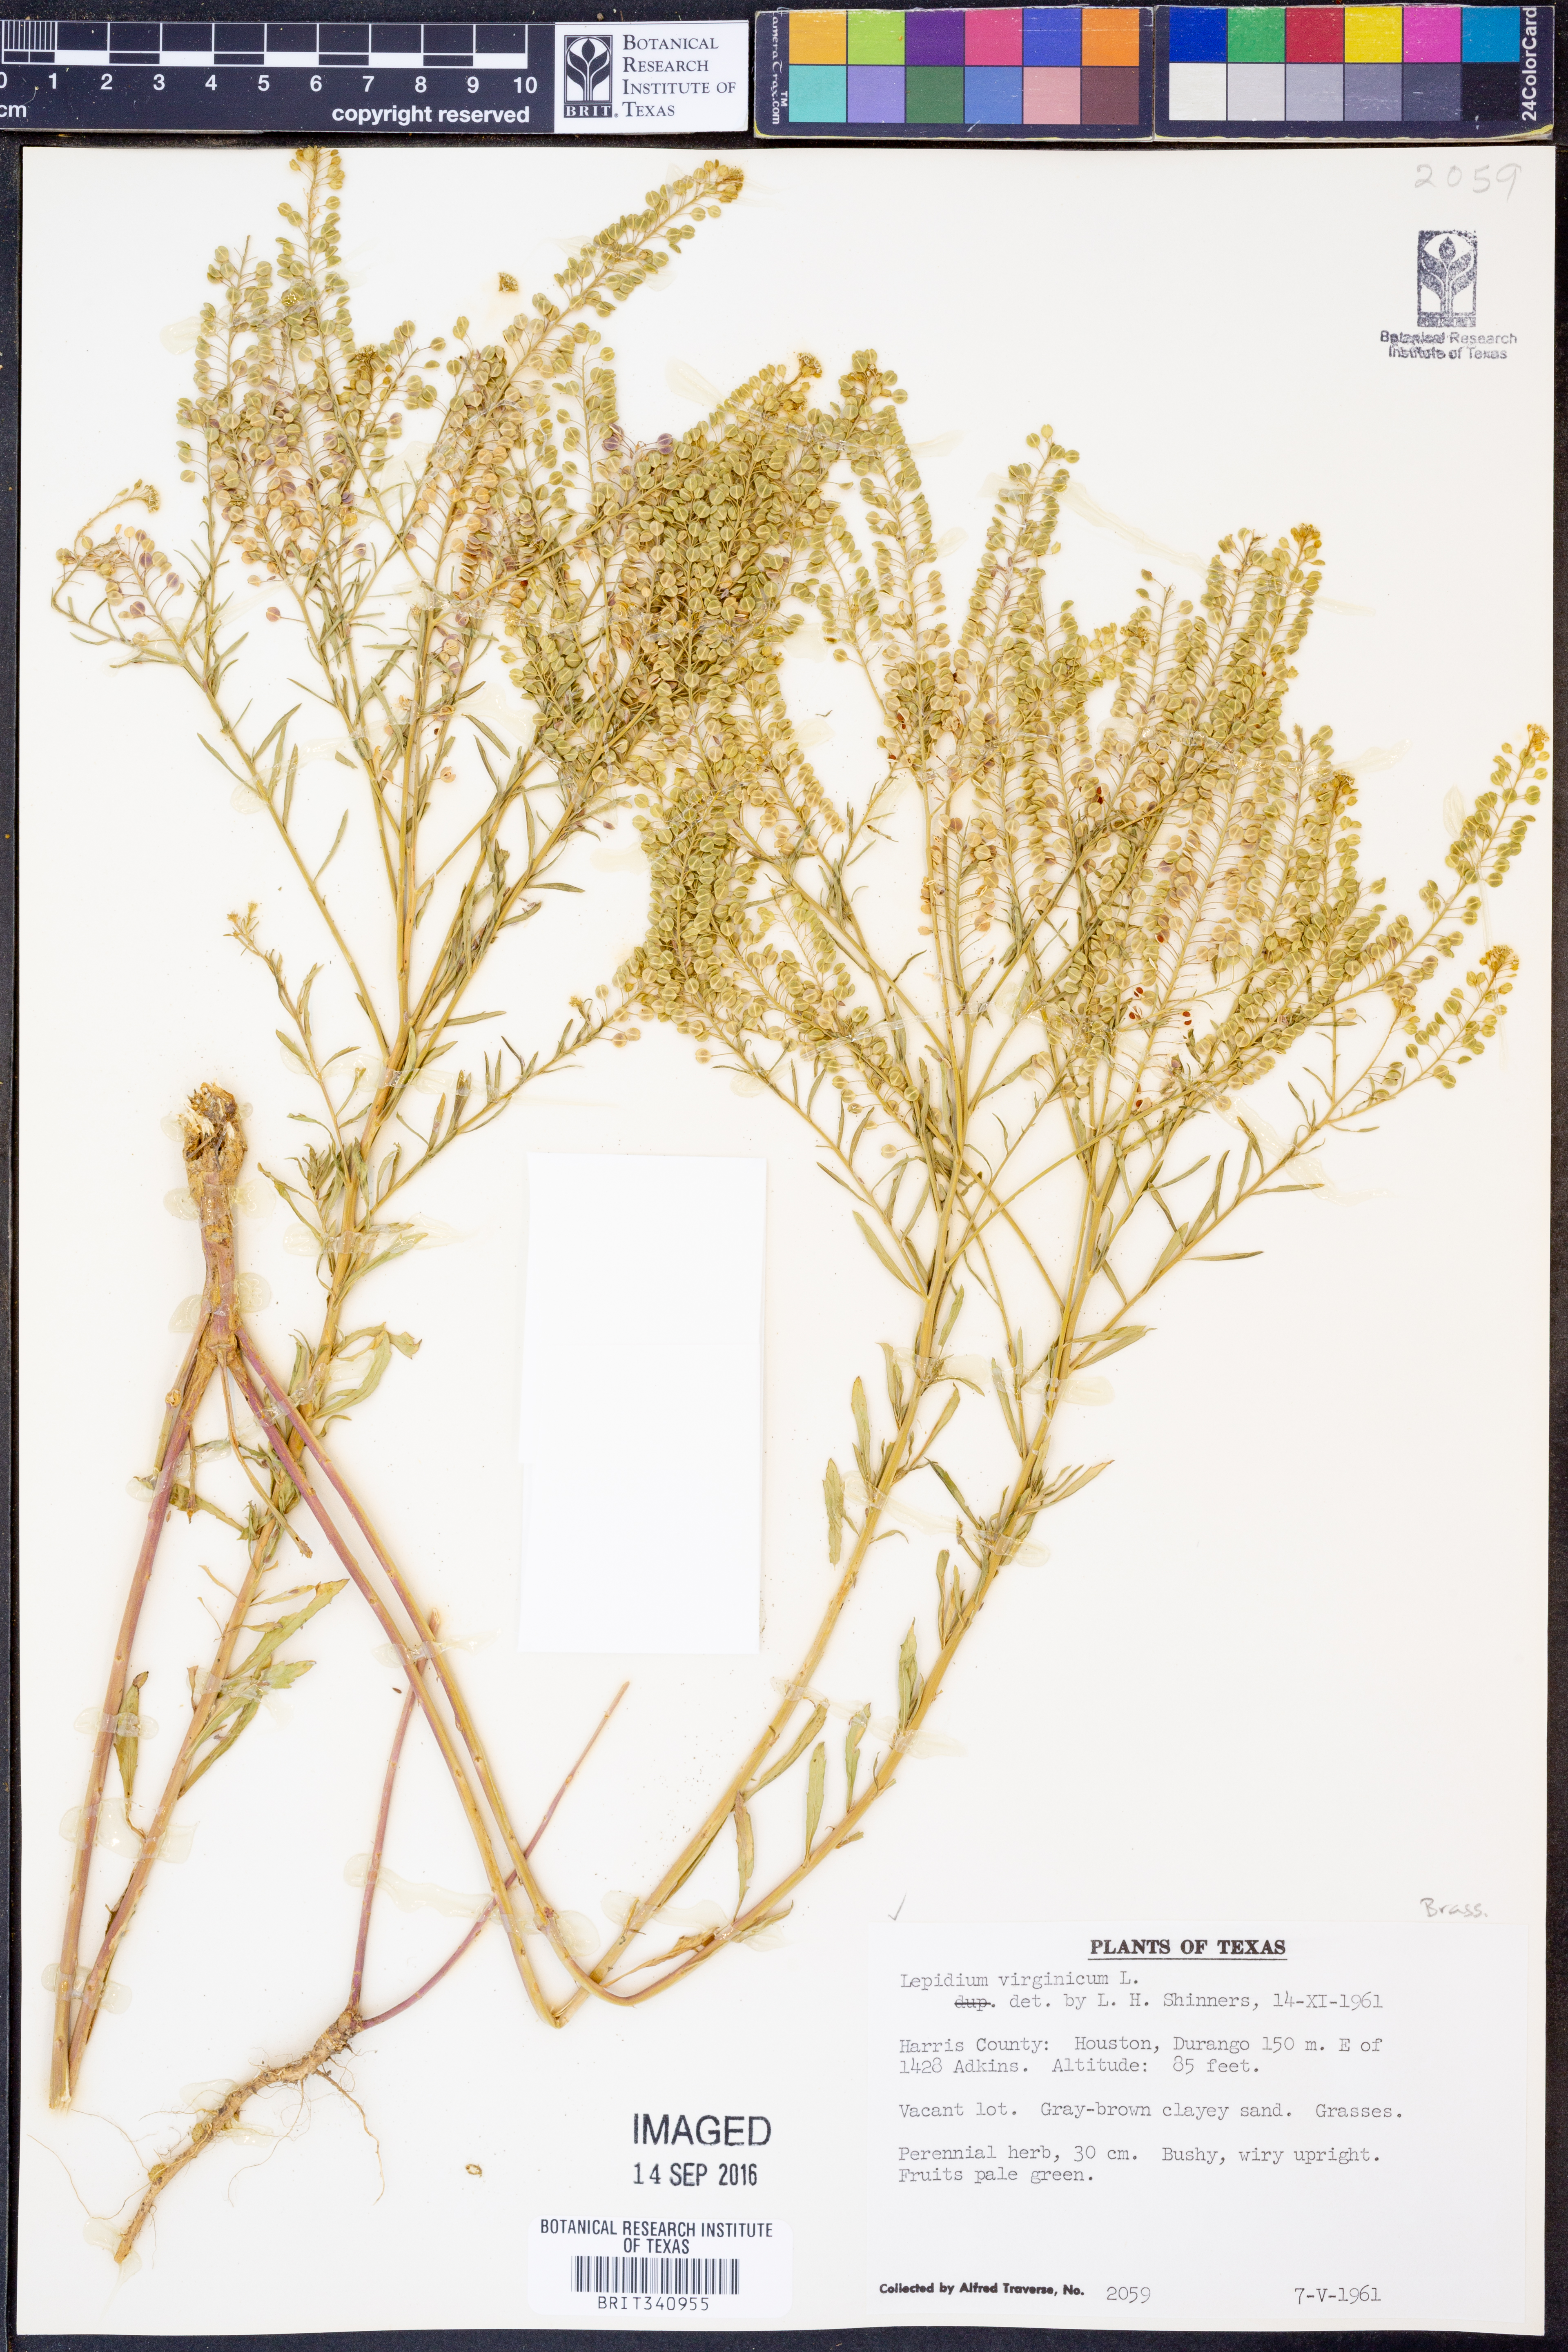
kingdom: Plantae
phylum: Tracheophyta
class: Magnoliopsida
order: Brassicales
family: Brassicaceae
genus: Lepidium
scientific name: Lepidium virginicum
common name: Least pepperwort
